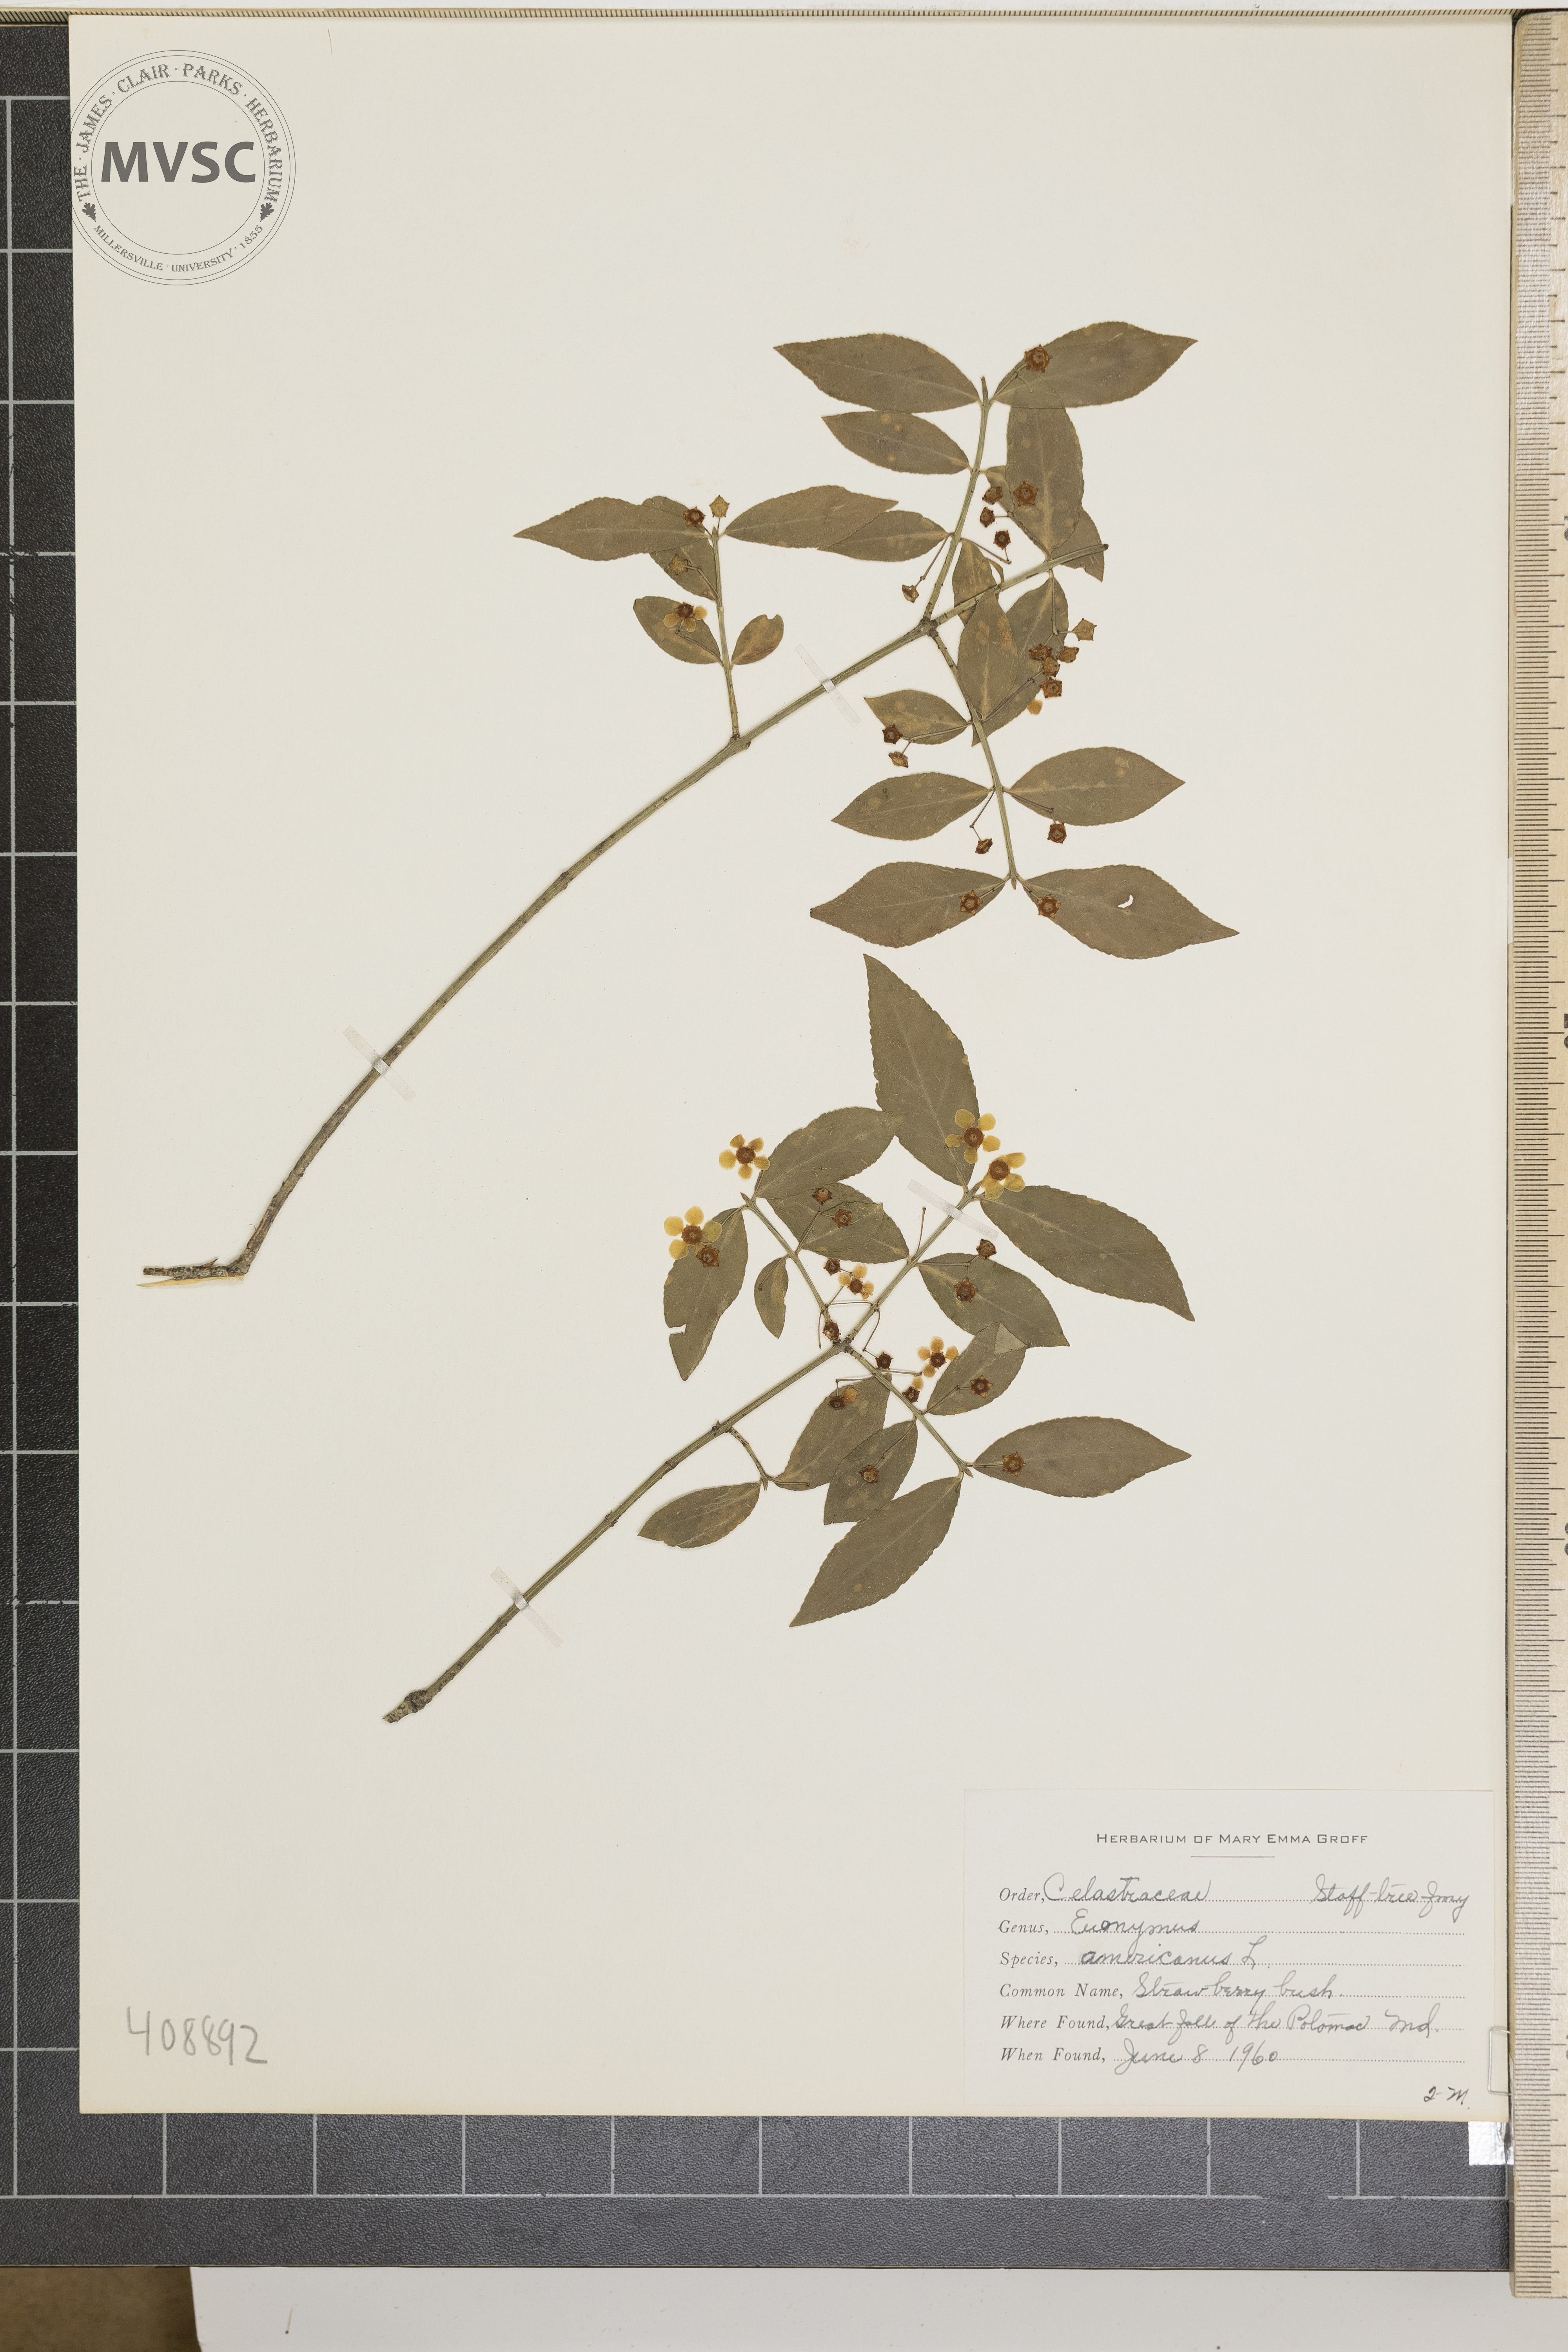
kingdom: Plantae
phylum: Tracheophyta
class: Magnoliopsida
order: Celastrales
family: Celastraceae
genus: Euonymus
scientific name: Euonymus americanus
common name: Strawberry Bush
